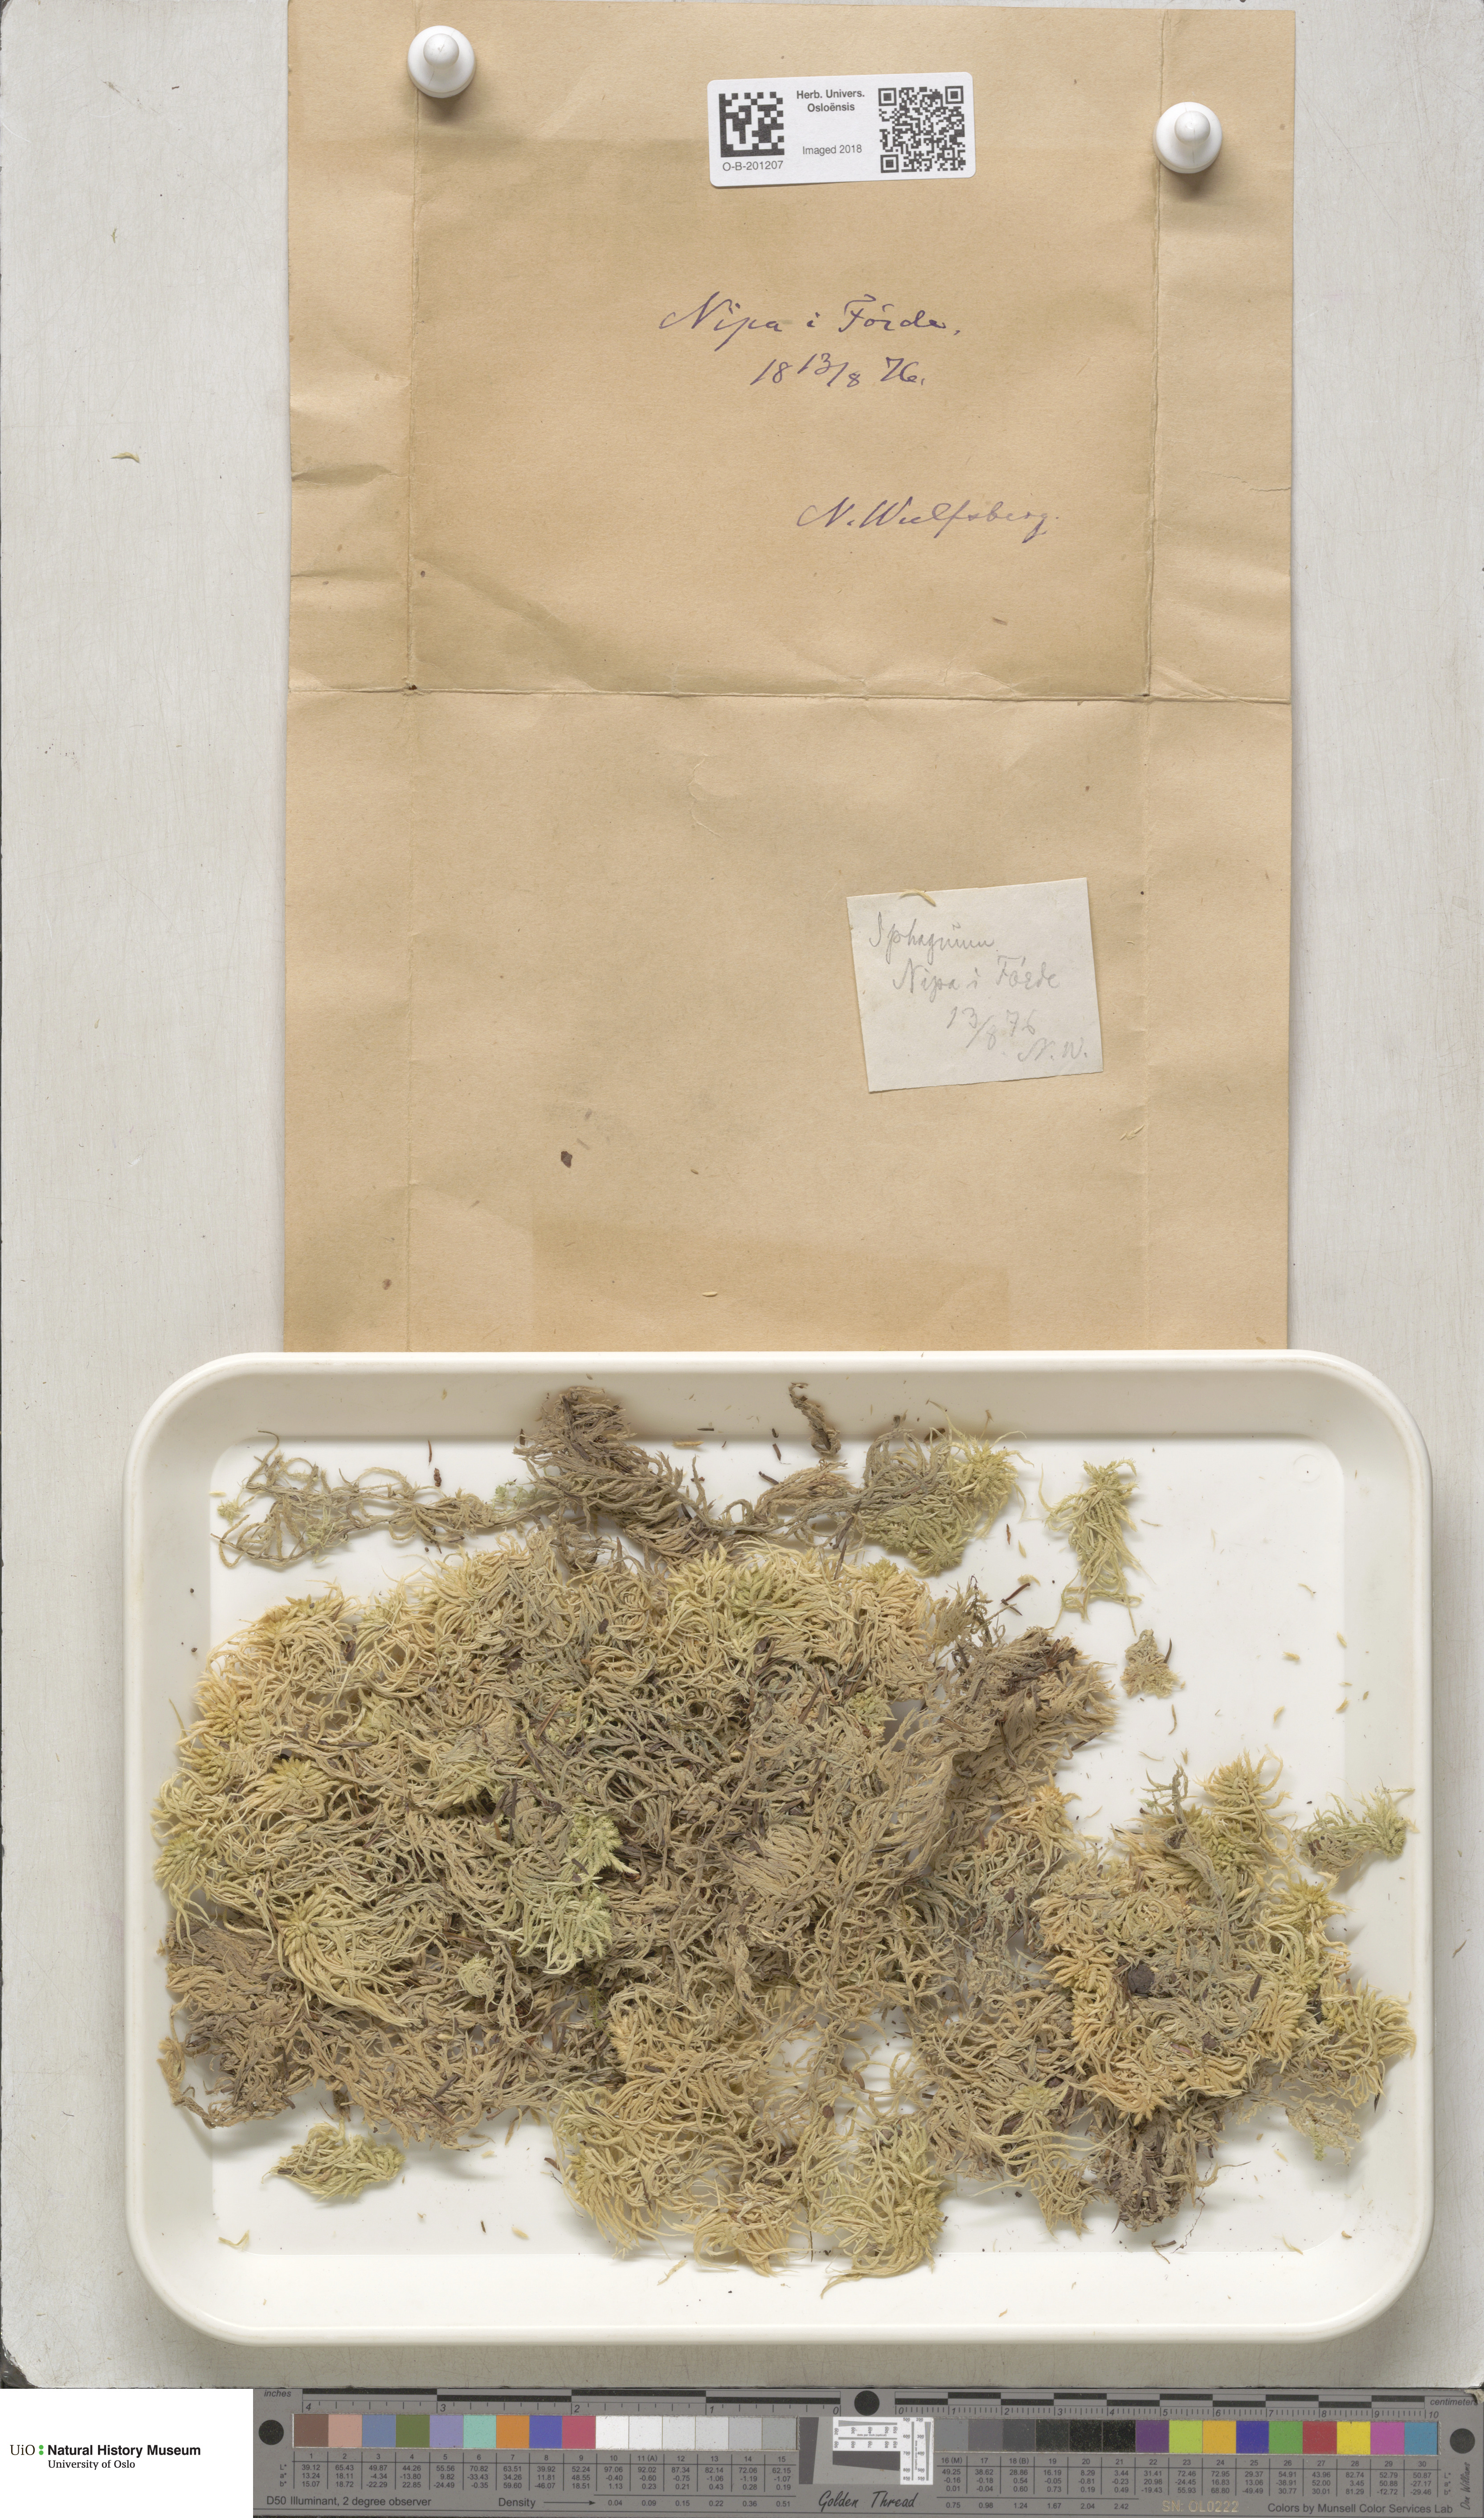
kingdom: Plantae
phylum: Bryophyta
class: Sphagnopsida
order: Sphagnales
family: Sphagnaceae
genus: Sphagnum
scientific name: Sphagnum girgensohnii
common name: Girgensohn's peat moss
